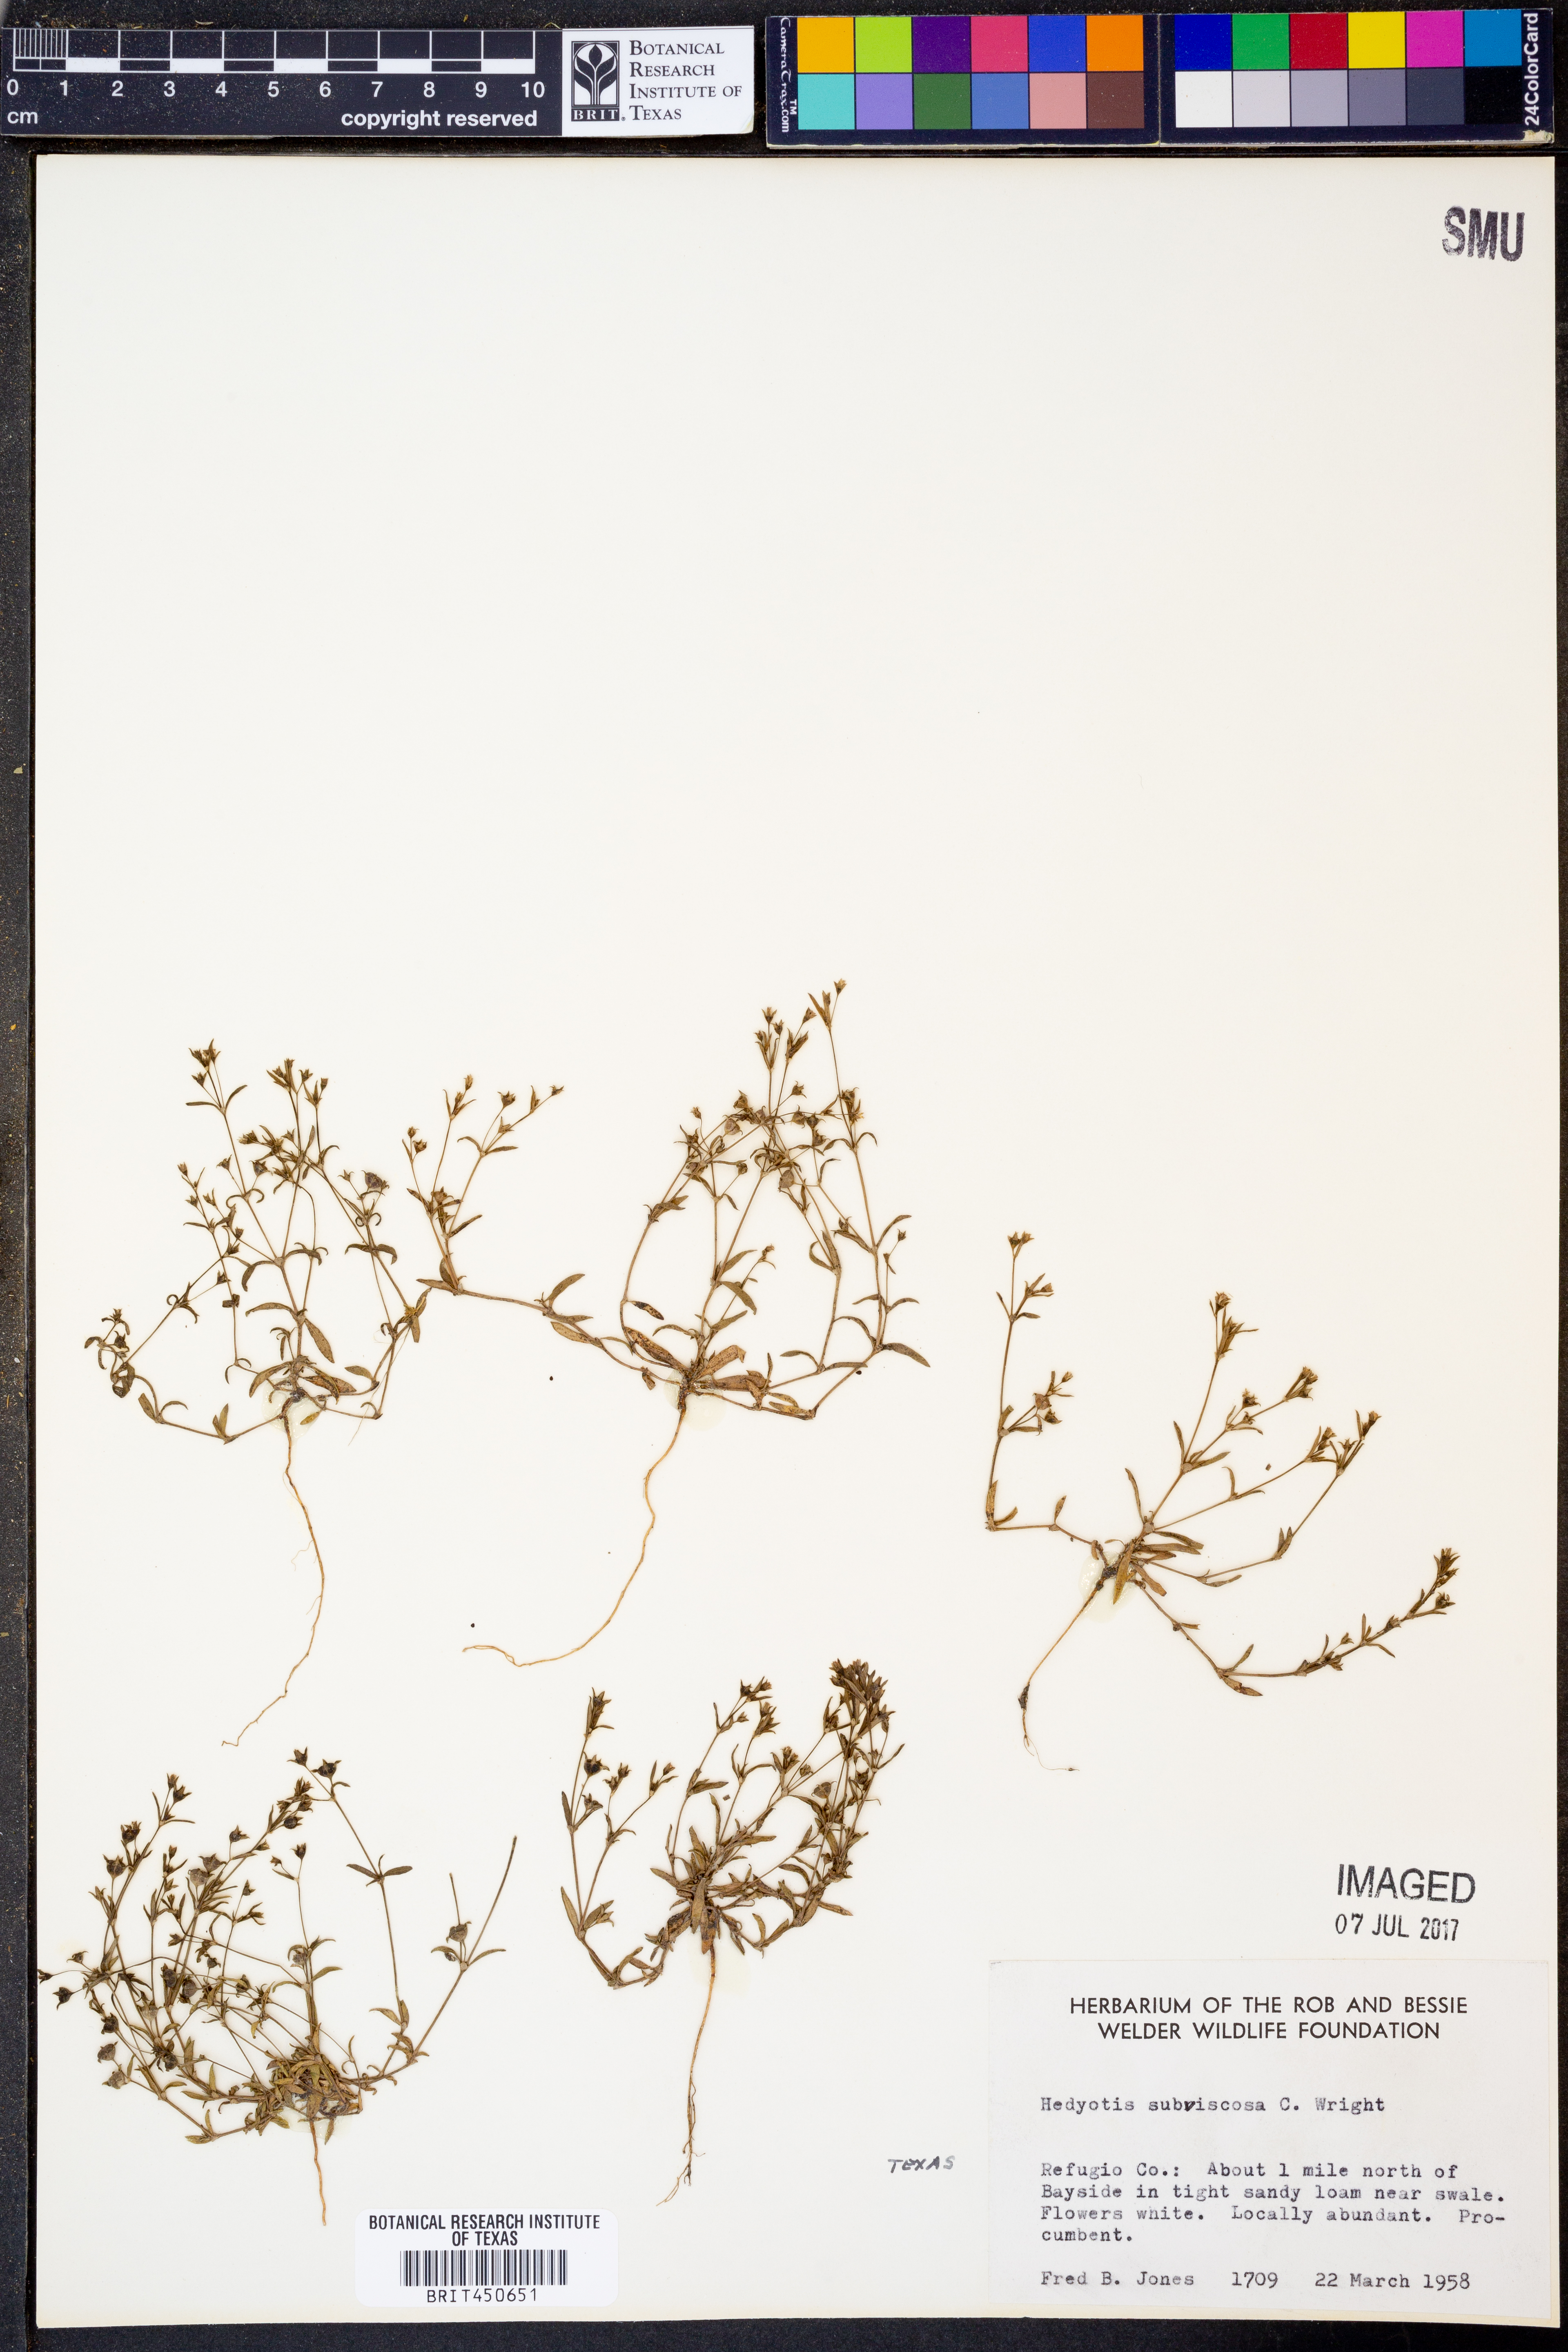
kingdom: Plantae
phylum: Tracheophyta
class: Magnoliopsida
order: Gentianales
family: Rubiaceae
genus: Houstonia
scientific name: Houstonia subviscosa
